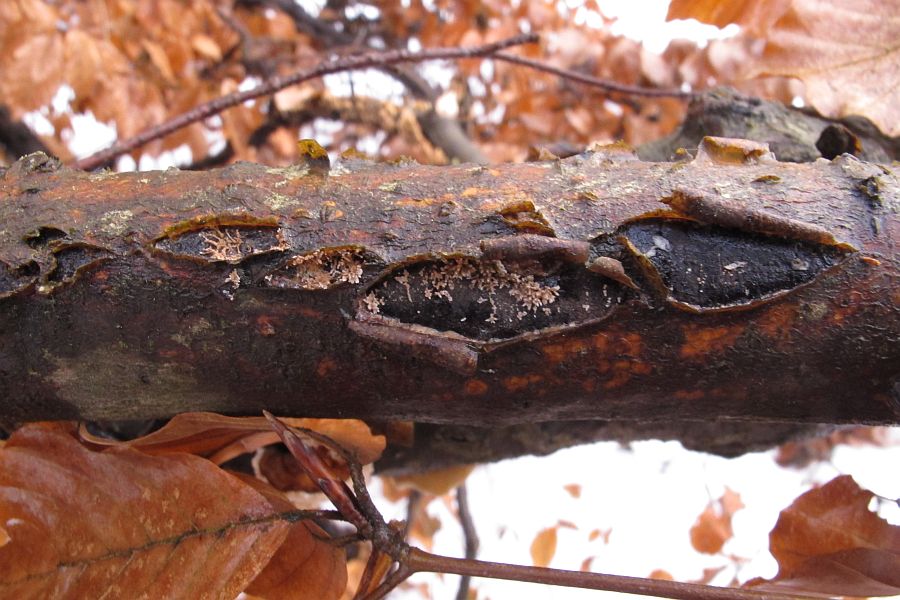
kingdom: Fungi
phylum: Ascomycota
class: Sordariomycetes
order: Xylariales
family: Diatrypaceae
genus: Diatrype
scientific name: Diatrype decorticata
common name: barksprænger-kulskorpe
